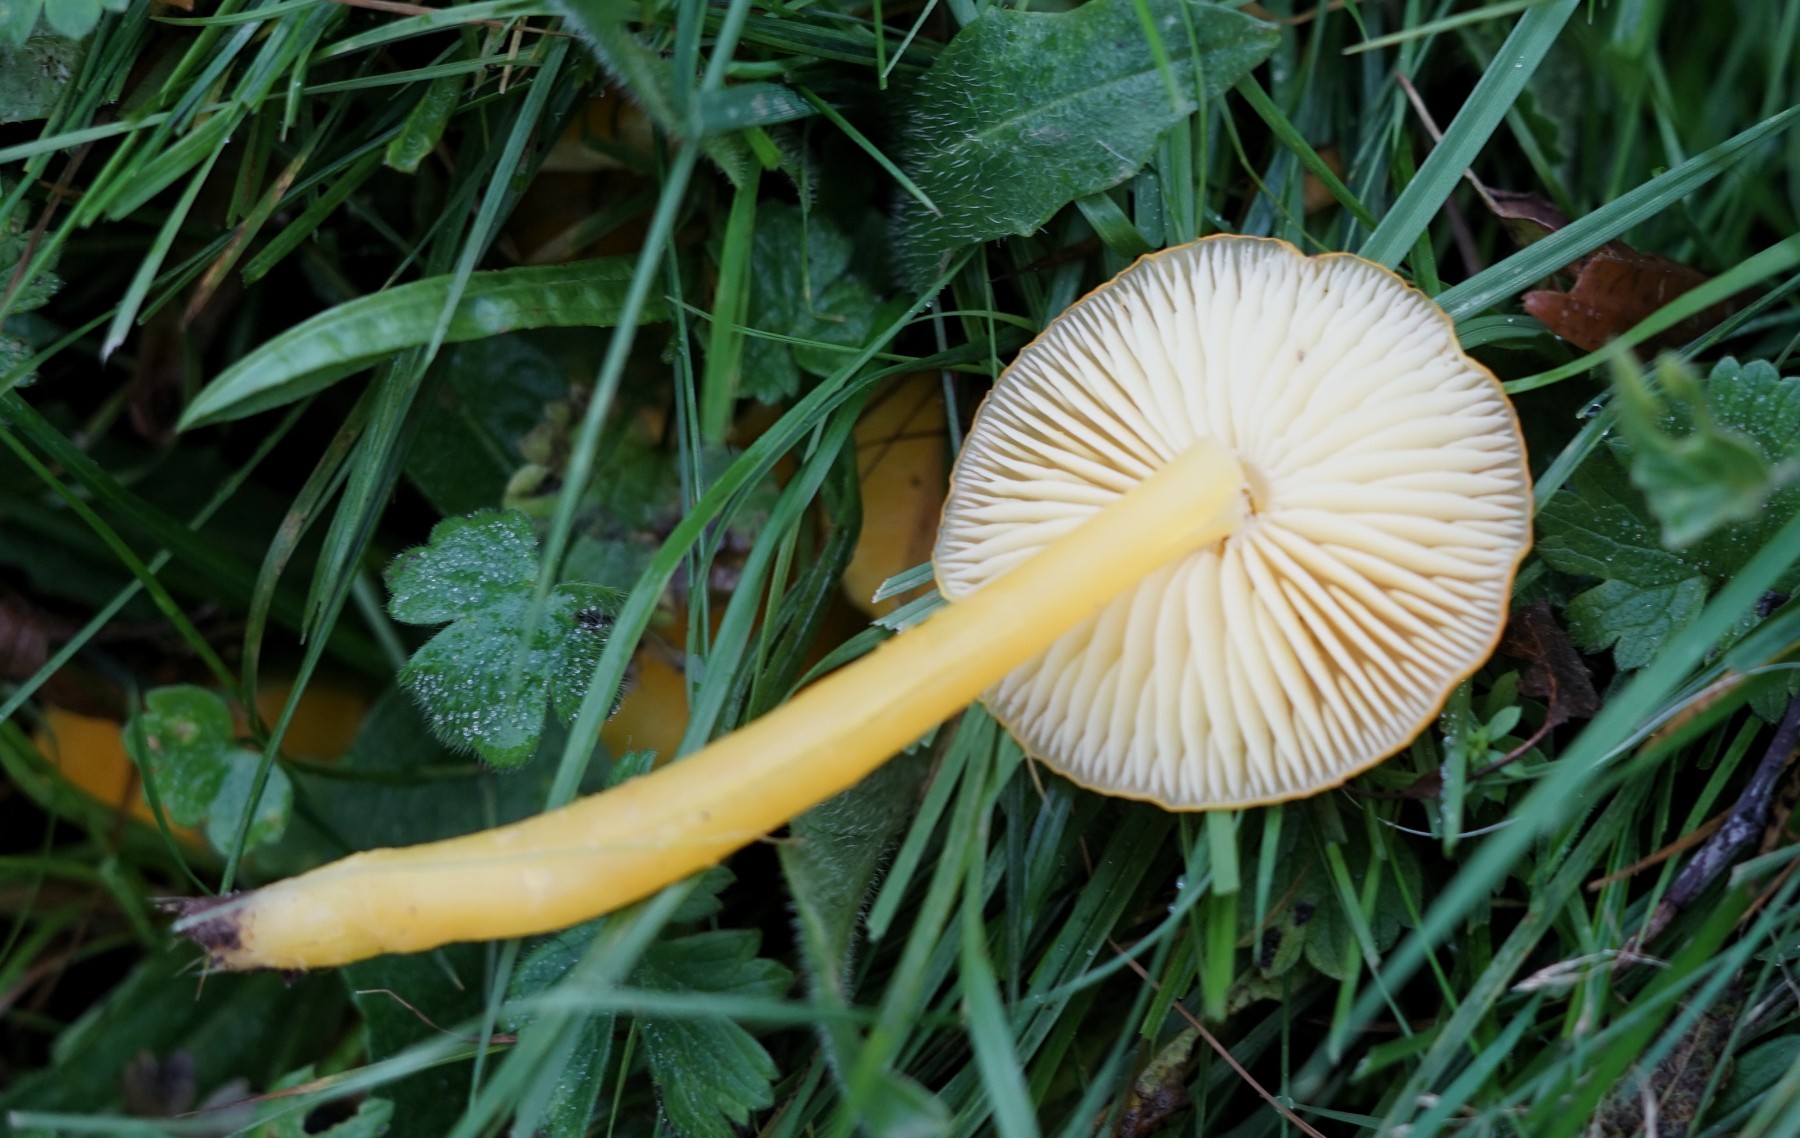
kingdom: Fungi
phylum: Basidiomycota
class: Agaricomycetes
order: Agaricales
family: Hygrophoraceae
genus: Hygrocybe
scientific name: Hygrocybe ceracea
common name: voksgul vokshat
